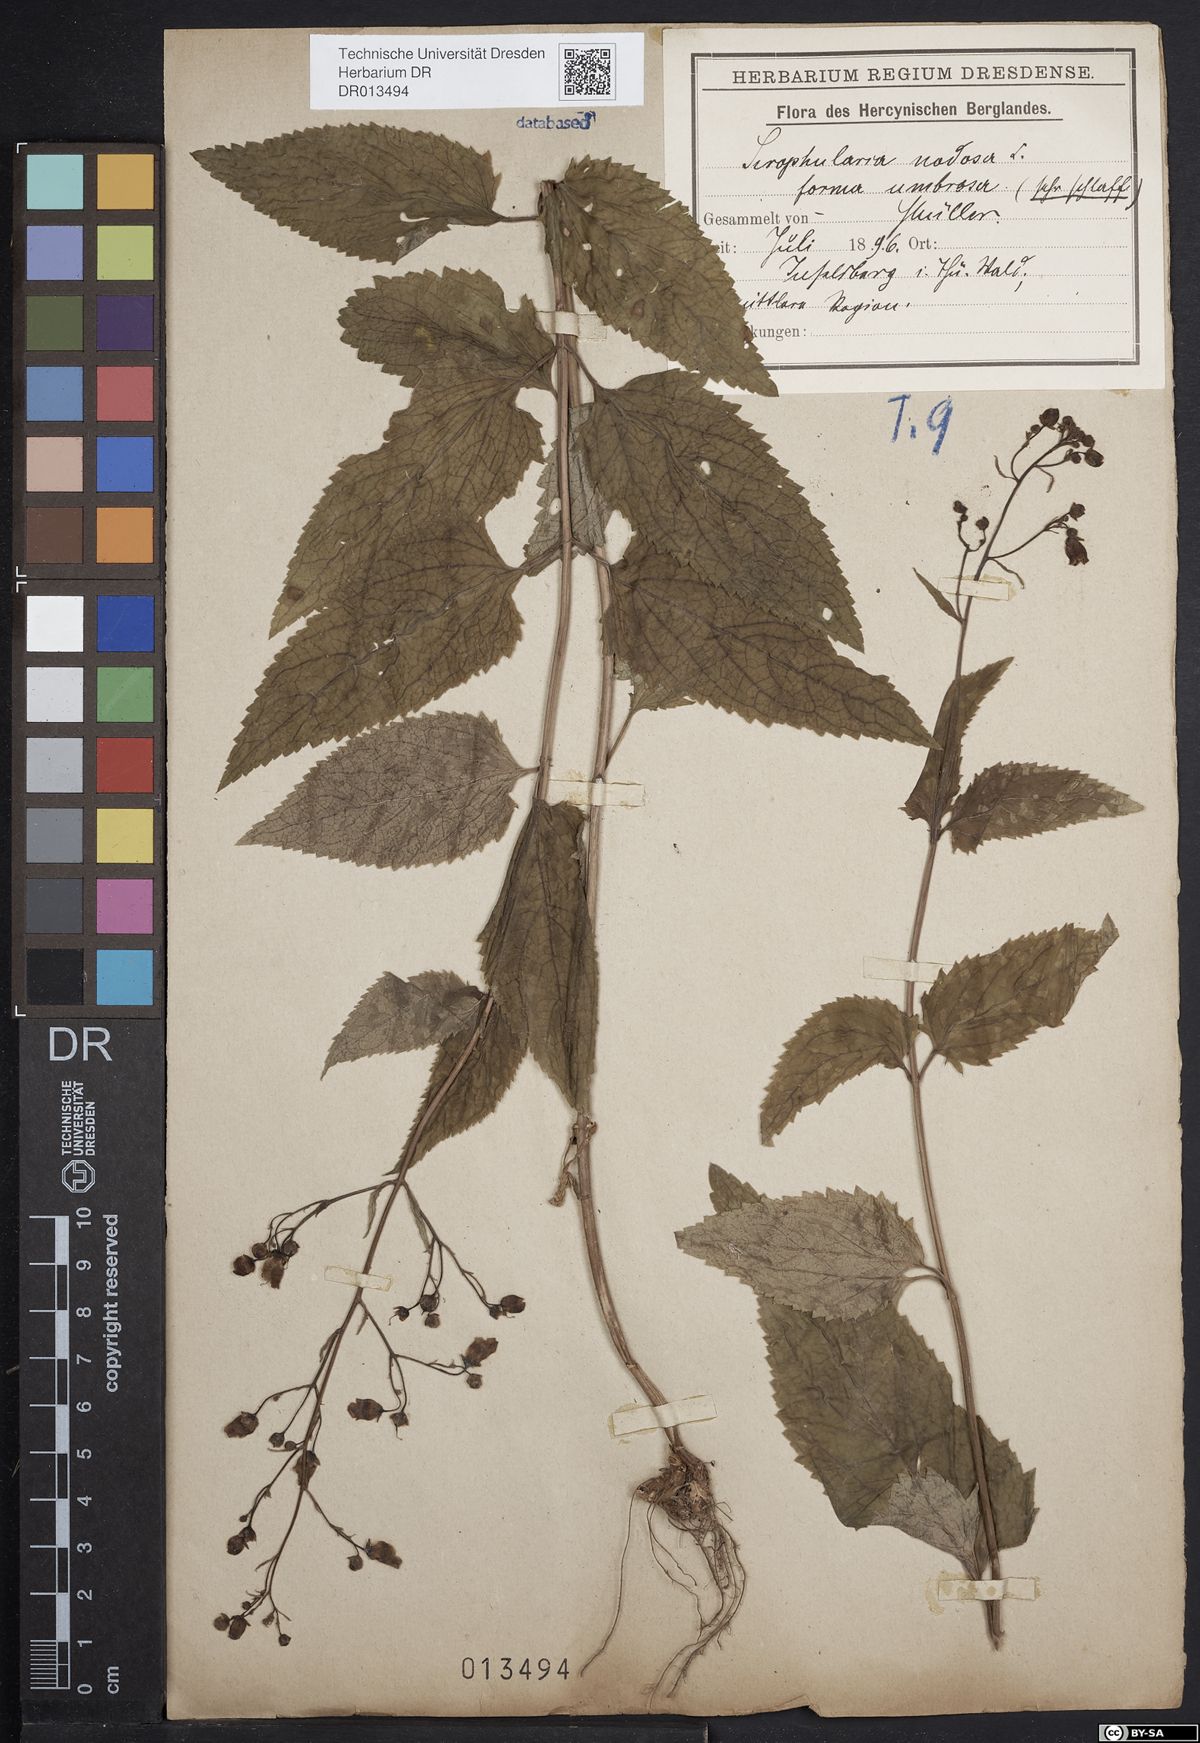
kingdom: Plantae
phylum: Tracheophyta
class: Magnoliopsida
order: Lamiales
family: Scrophulariaceae
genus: Scrophularia
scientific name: Scrophularia nodosa
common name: Common figwort
